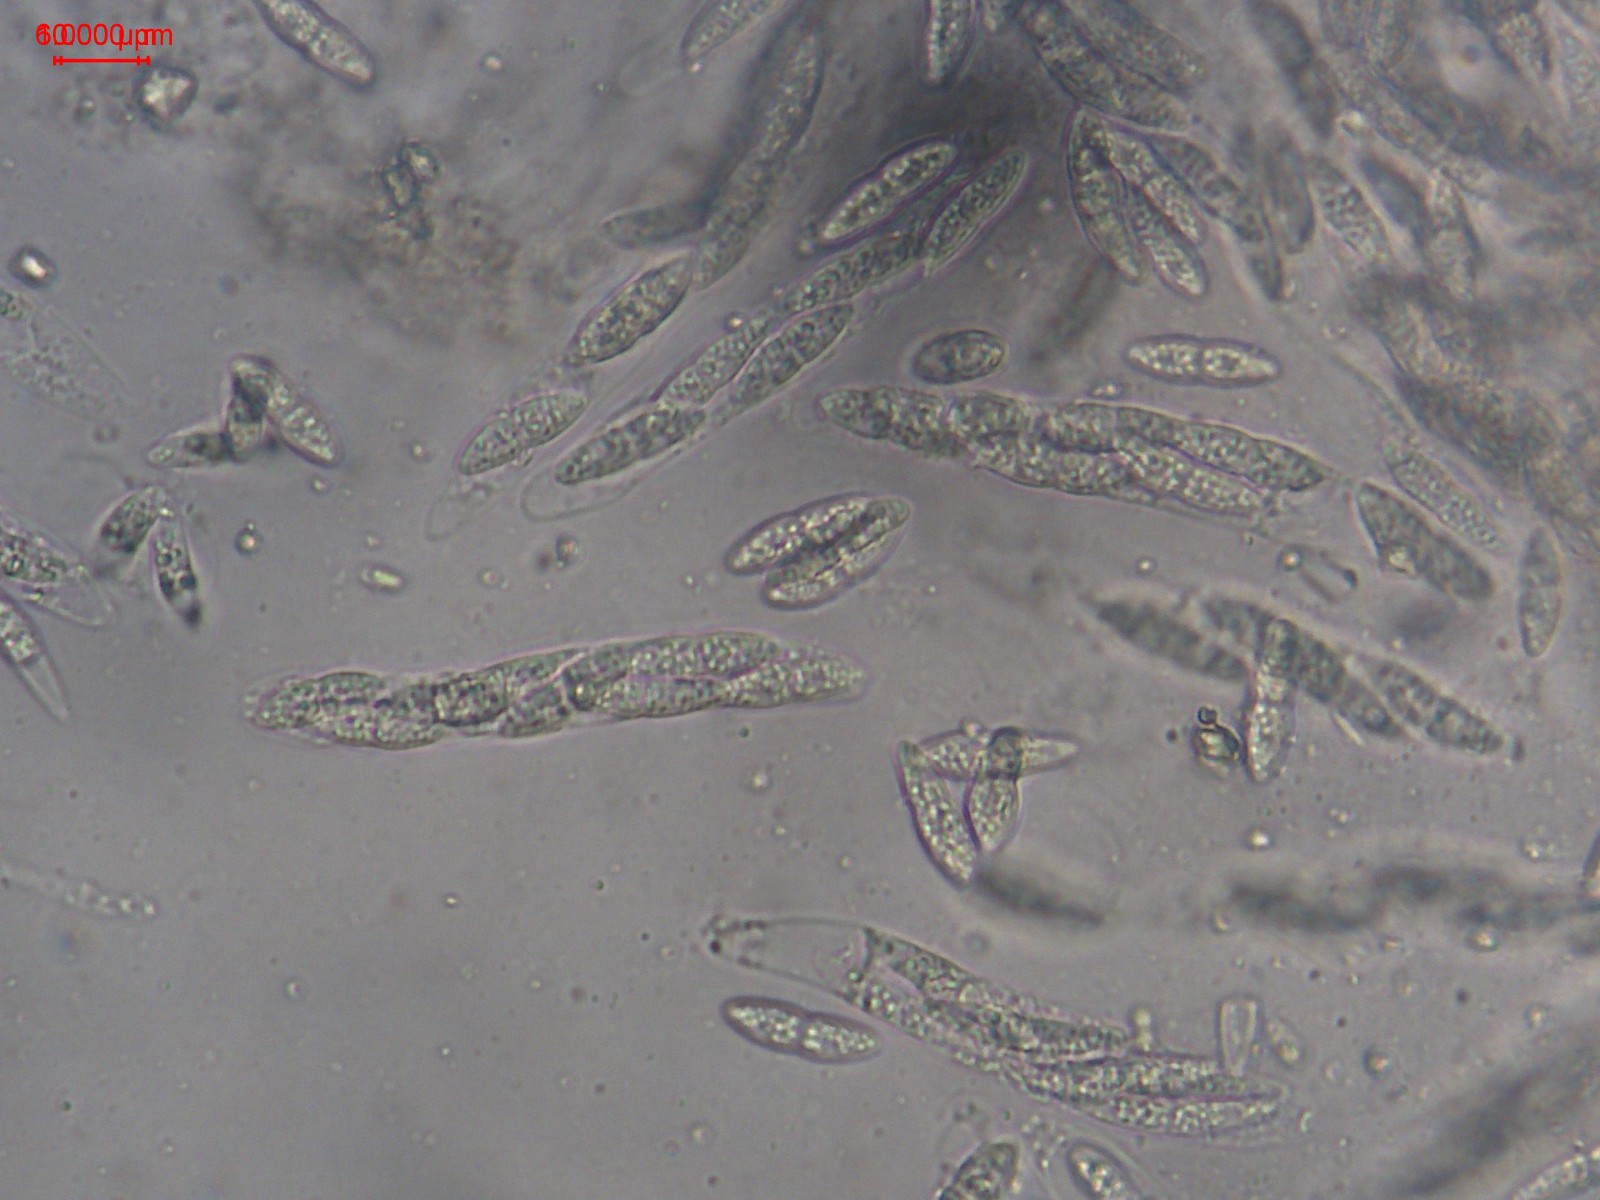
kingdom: Fungi
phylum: Ascomycota
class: Sordariomycetes
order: Diaporthales
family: Erythrogloeaceae
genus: Dendrostoma
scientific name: Dendrostoma leiphaemia
